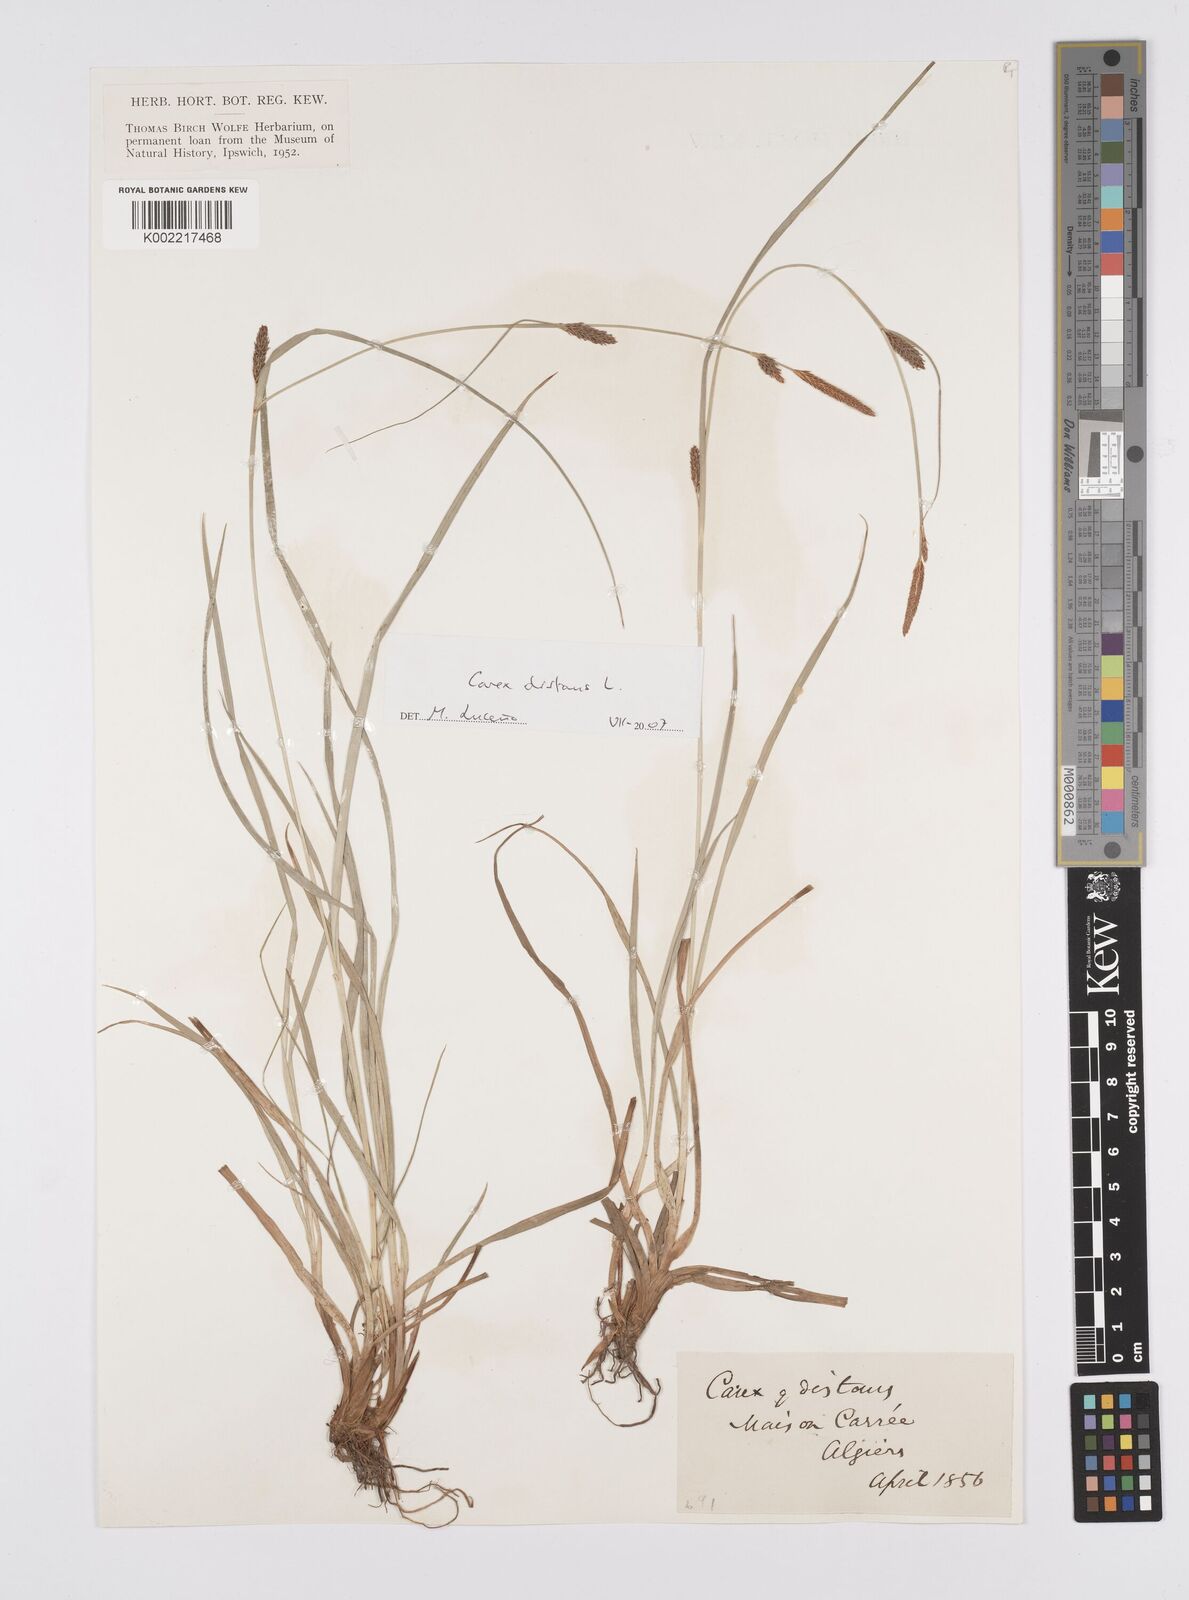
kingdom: Plantae
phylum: Tracheophyta
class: Liliopsida
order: Poales
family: Cyperaceae
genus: Carex
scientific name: Carex distans
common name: Distant sedge
